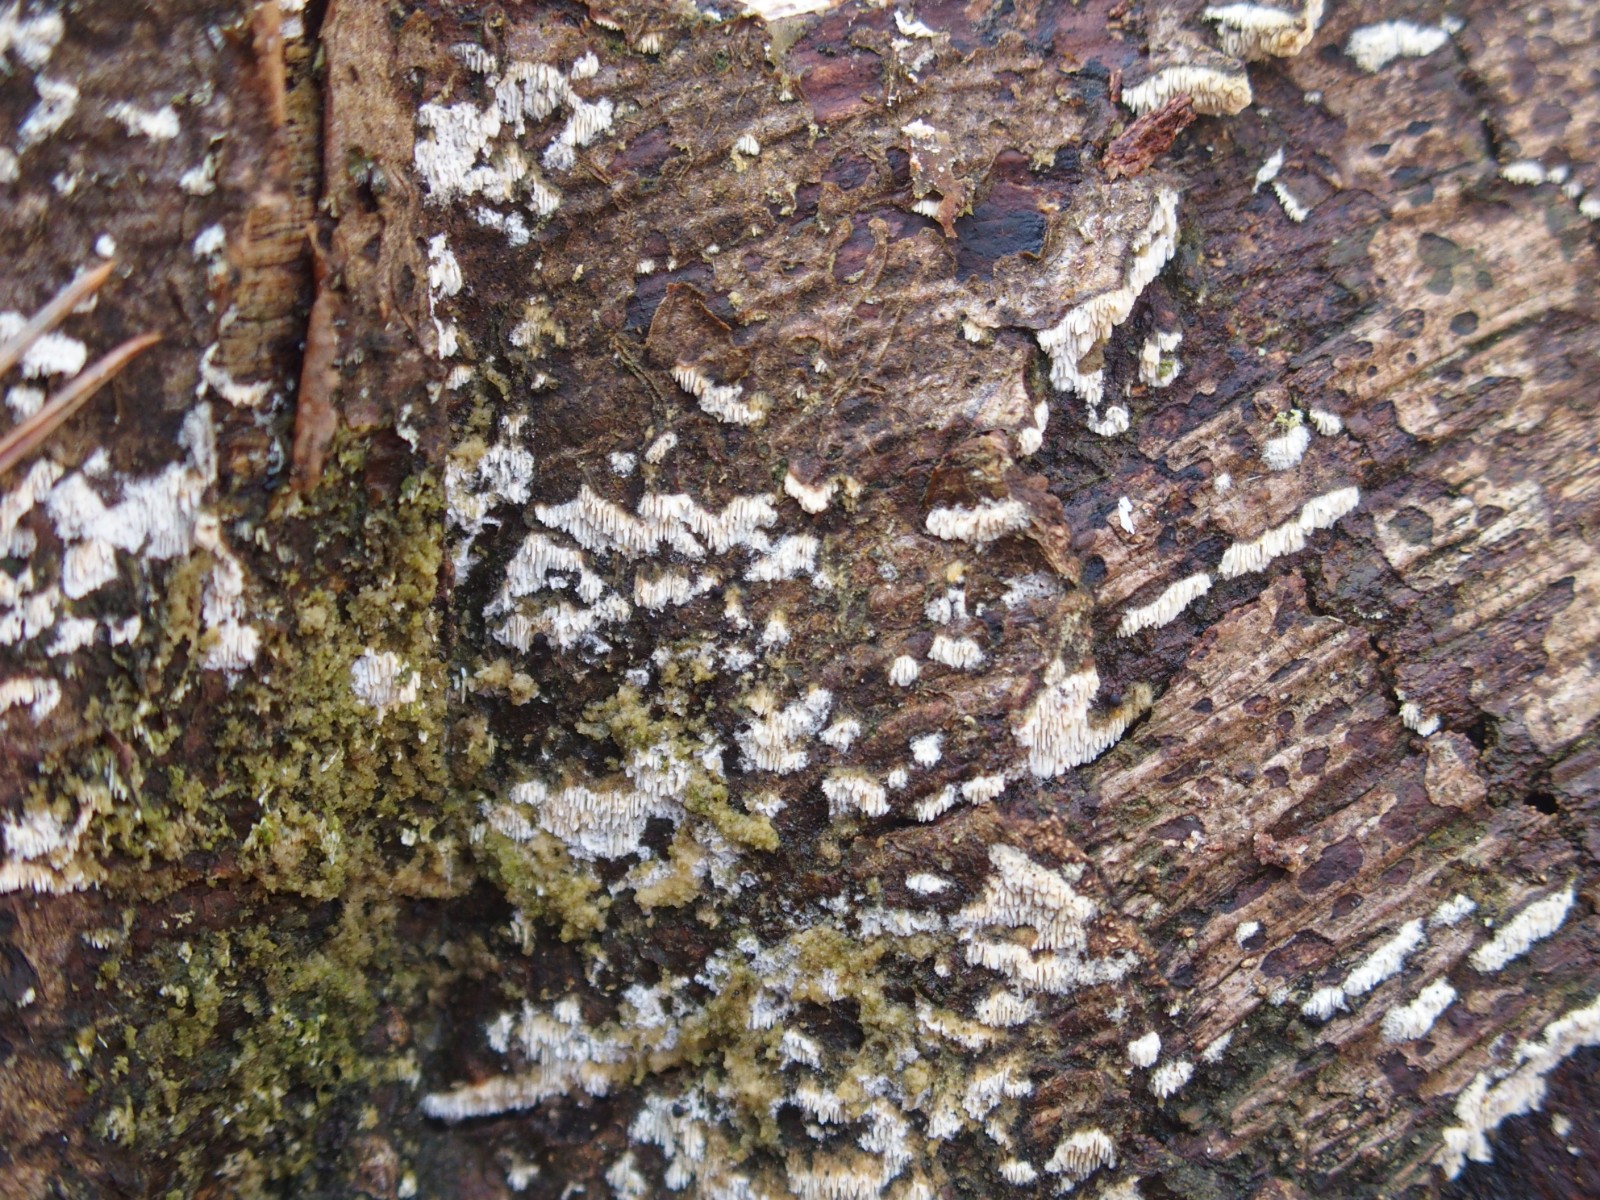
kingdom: Fungi
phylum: Basidiomycota
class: Agaricomycetes
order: Hymenochaetales
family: Schizoporaceae
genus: Schizopora
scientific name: Schizopora paradoxa
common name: hvid tandsvamp
